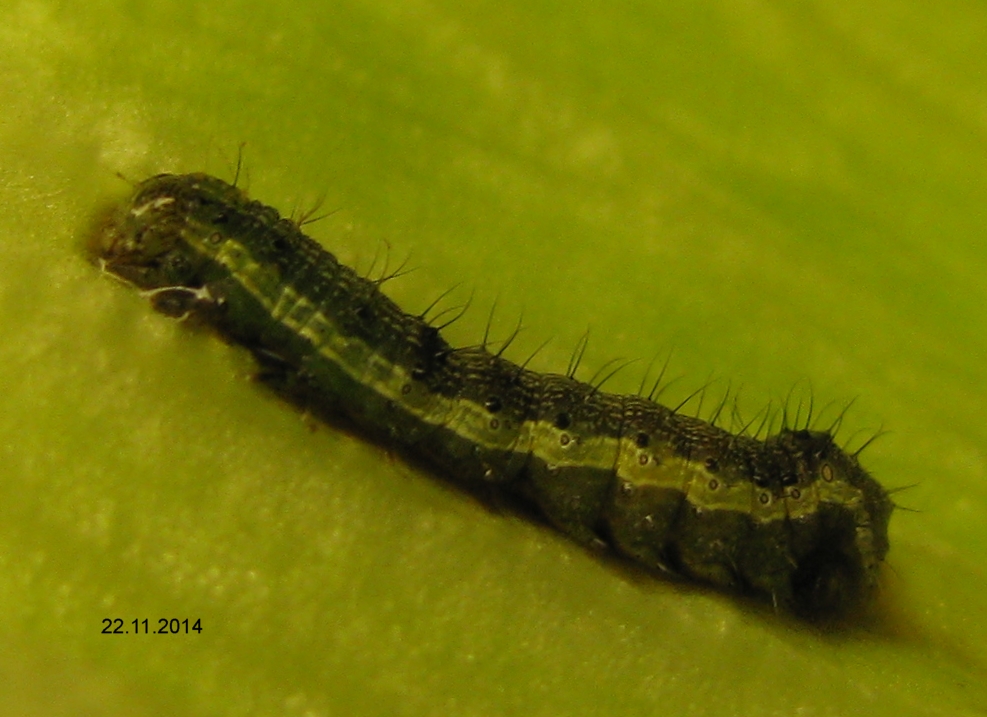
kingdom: Animalia
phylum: Arthropoda
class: Insecta
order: Lepidoptera
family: Noctuidae
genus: Helicoverpa
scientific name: Helicoverpa armigera
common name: Cotton bollworm
